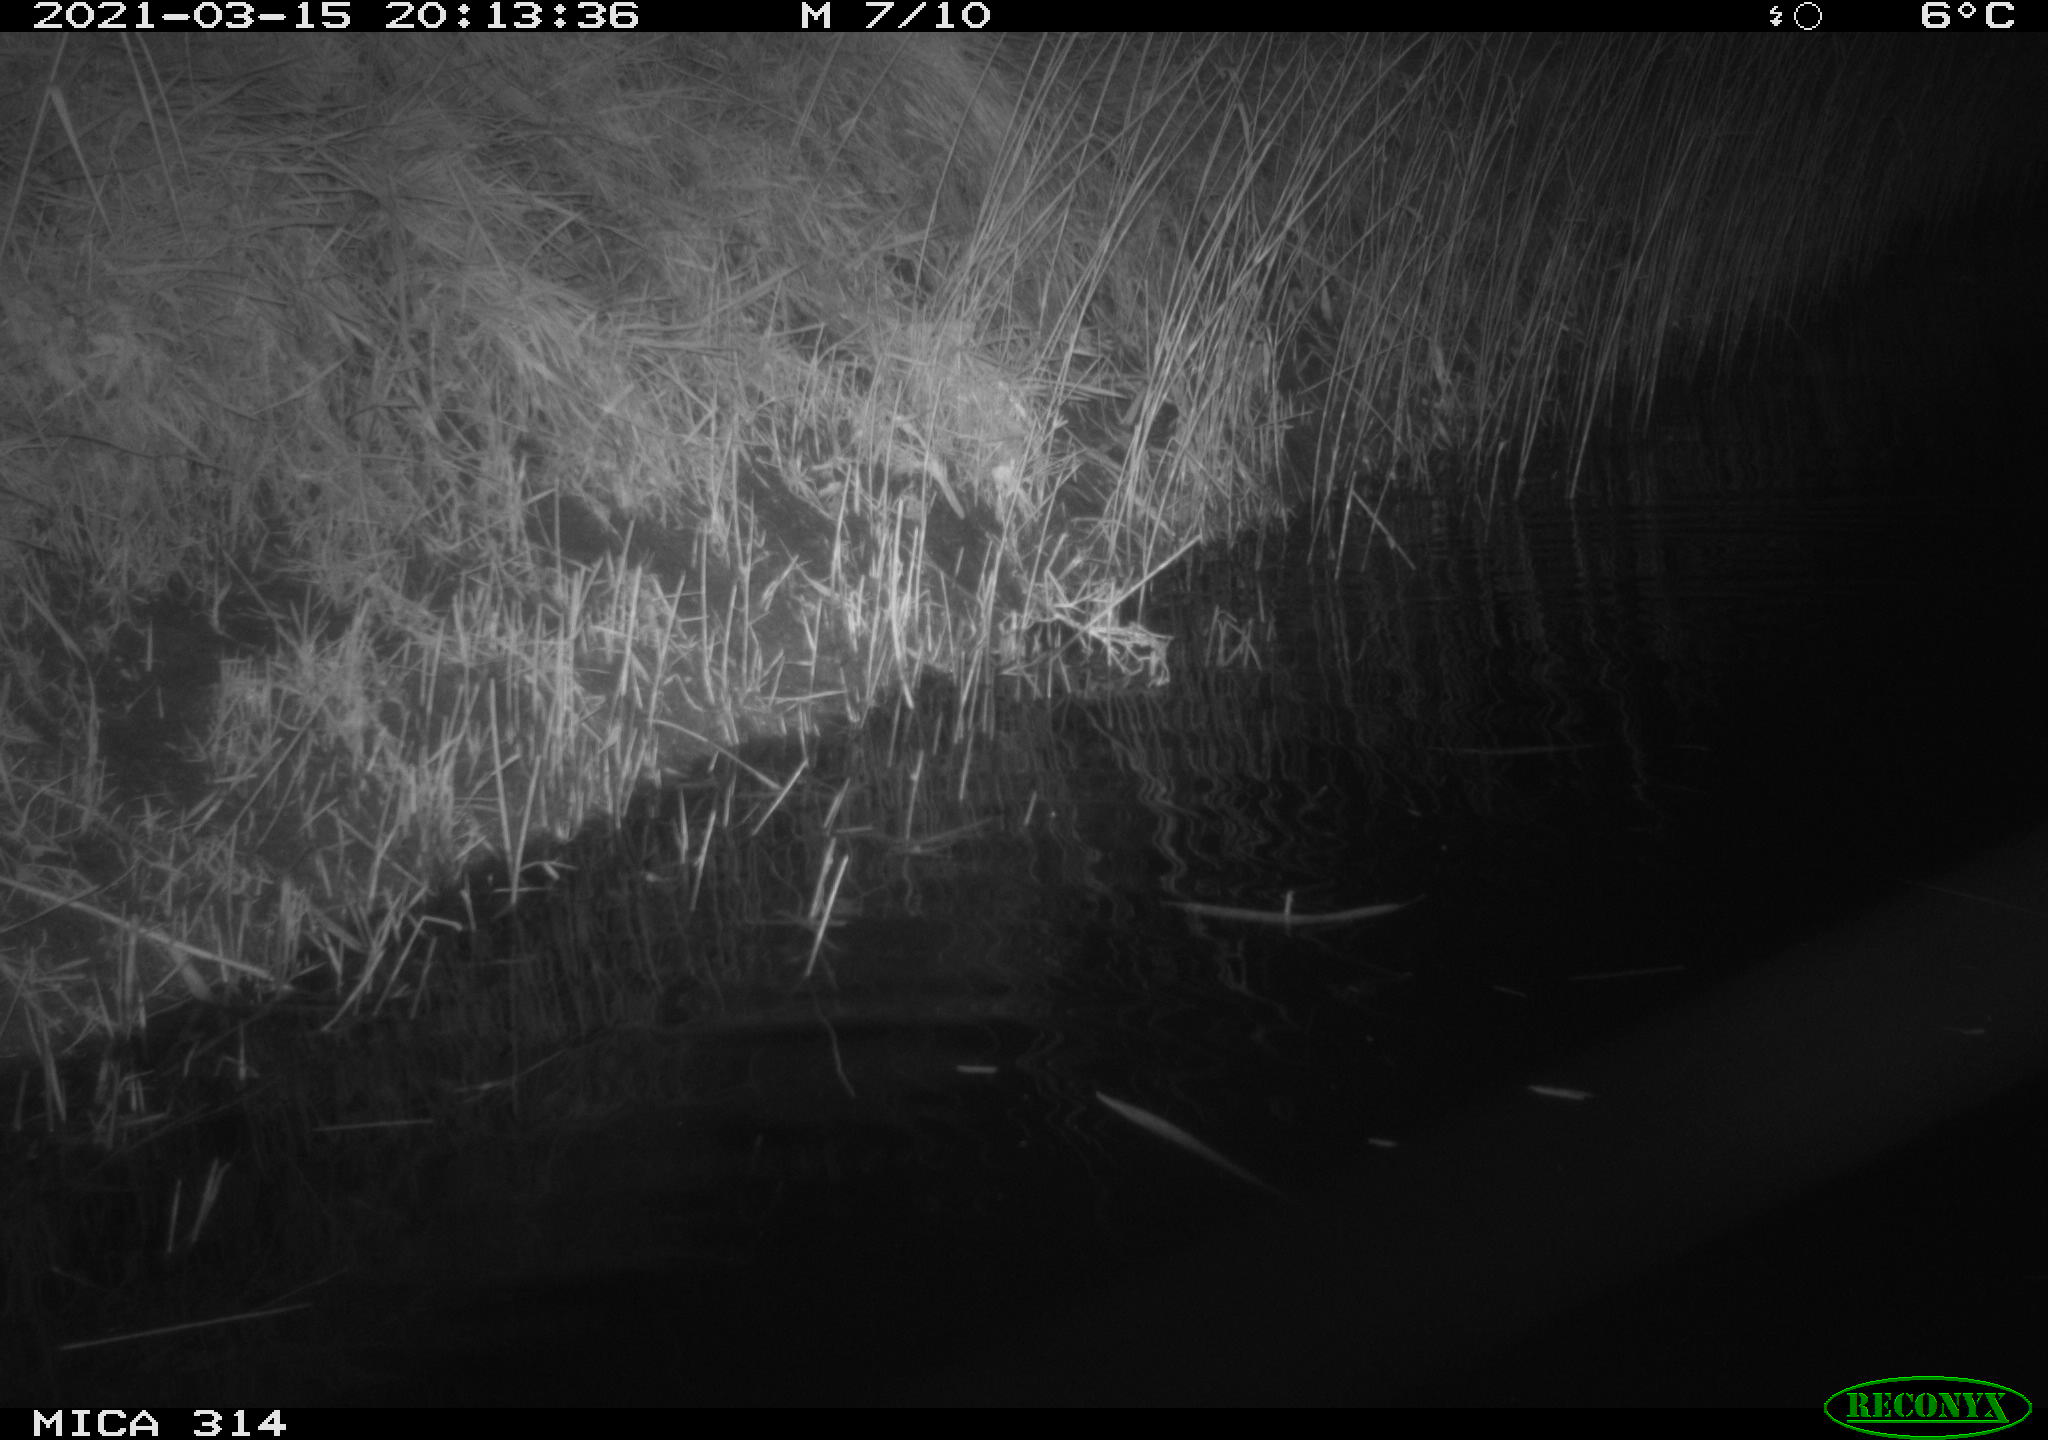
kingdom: Animalia
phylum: Chordata
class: Aves
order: Anseriformes
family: Anatidae
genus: Anas
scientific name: Anas platyrhynchos
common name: Mallard
